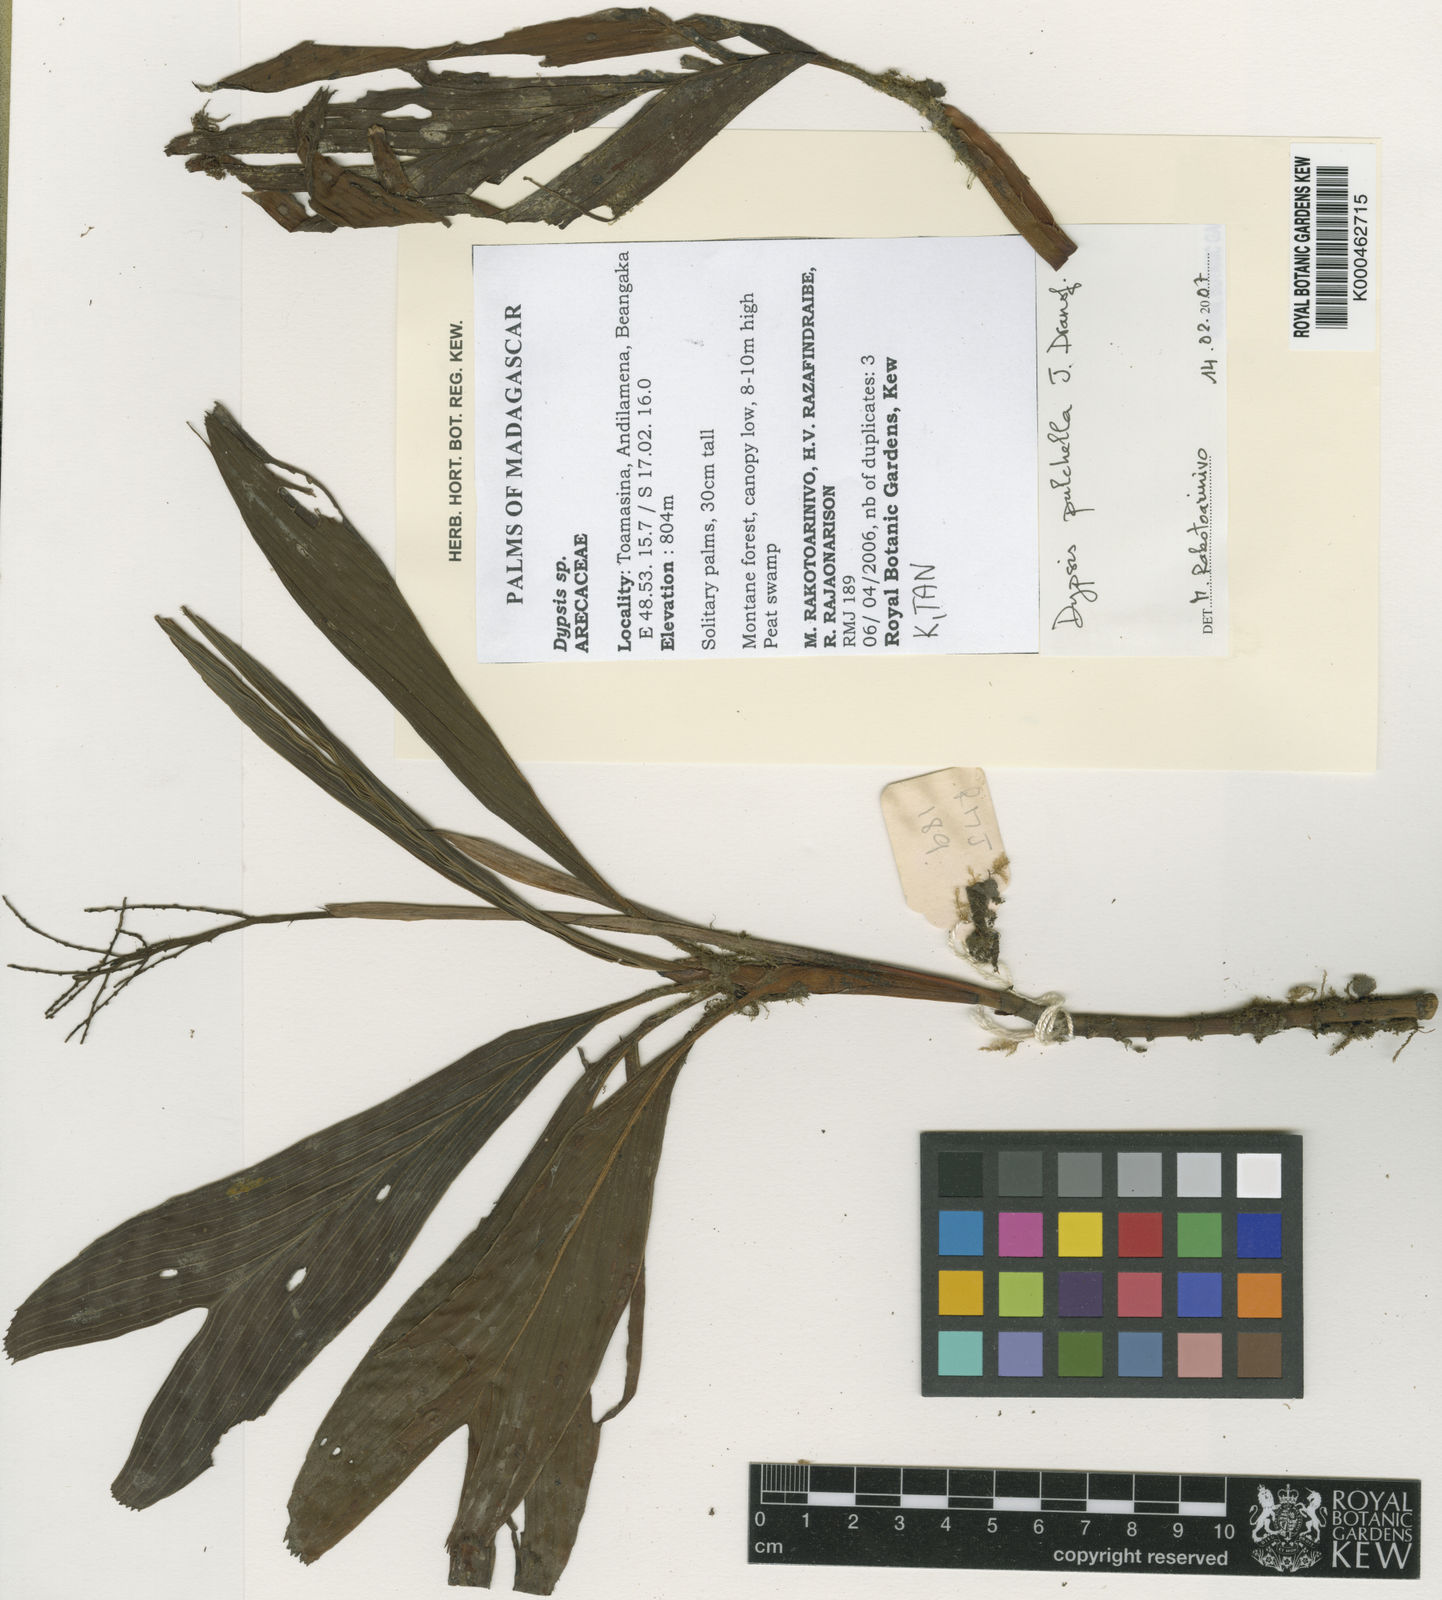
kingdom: Plantae
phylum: Tracheophyta
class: Liliopsida
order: Arecales
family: Arecaceae
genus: Dypsis
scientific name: Dypsis pulchella
